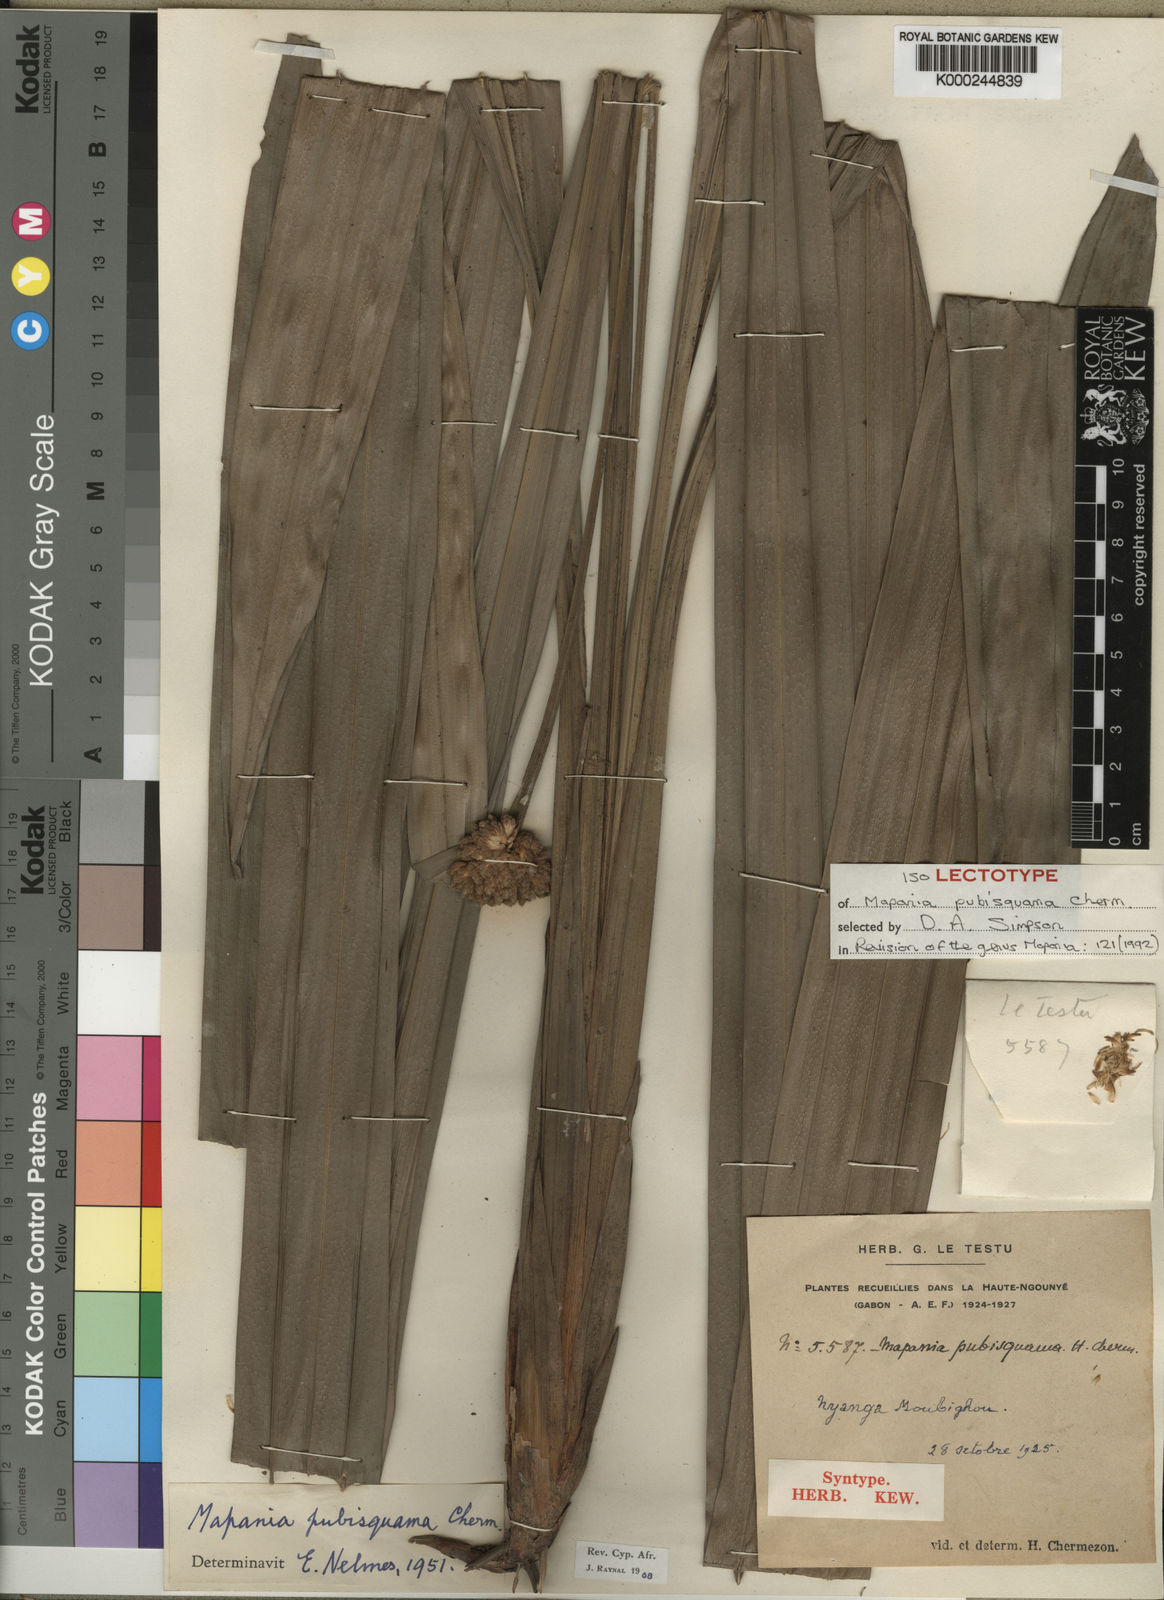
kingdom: Plantae
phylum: Tracheophyta
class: Liliopsida
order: Poales
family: Cyperaceae
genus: Mapania
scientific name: Mapania pubisquama
